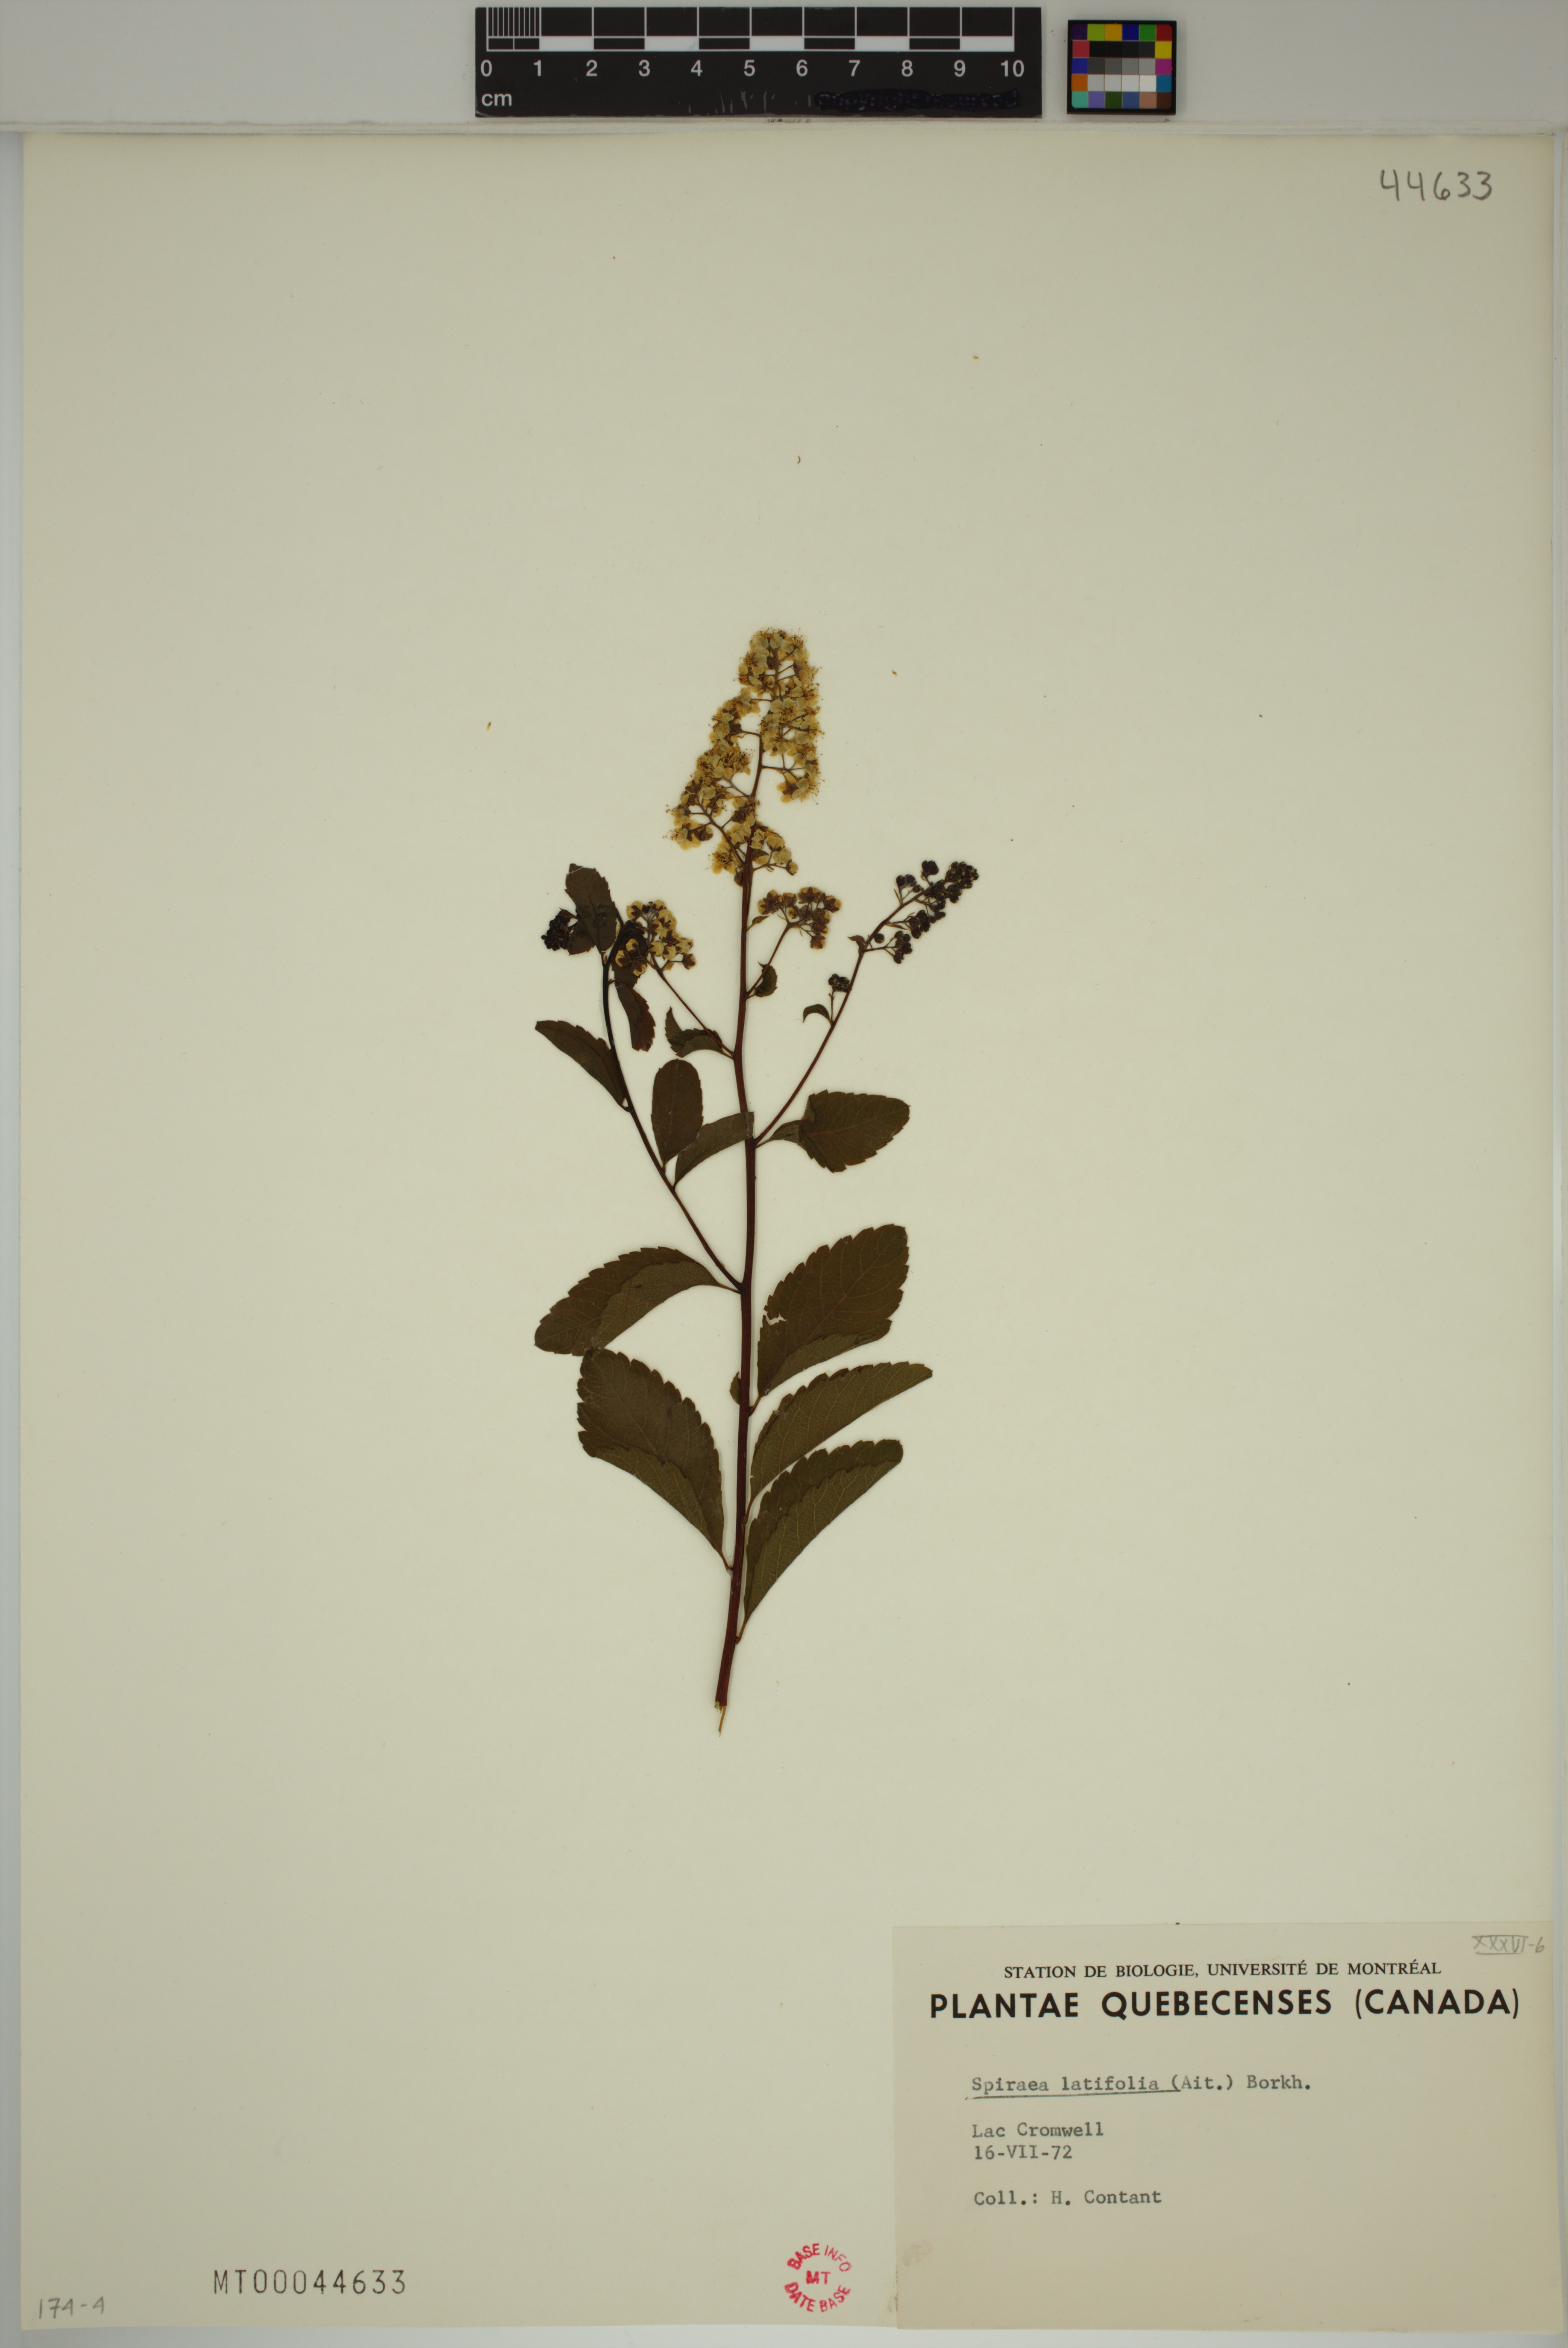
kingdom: Plantae
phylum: Tracheophyta
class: Magnoliopsida
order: Rosales
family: Rosaceae
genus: Spiraea
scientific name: Spiraea alba
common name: Pale bridewort
